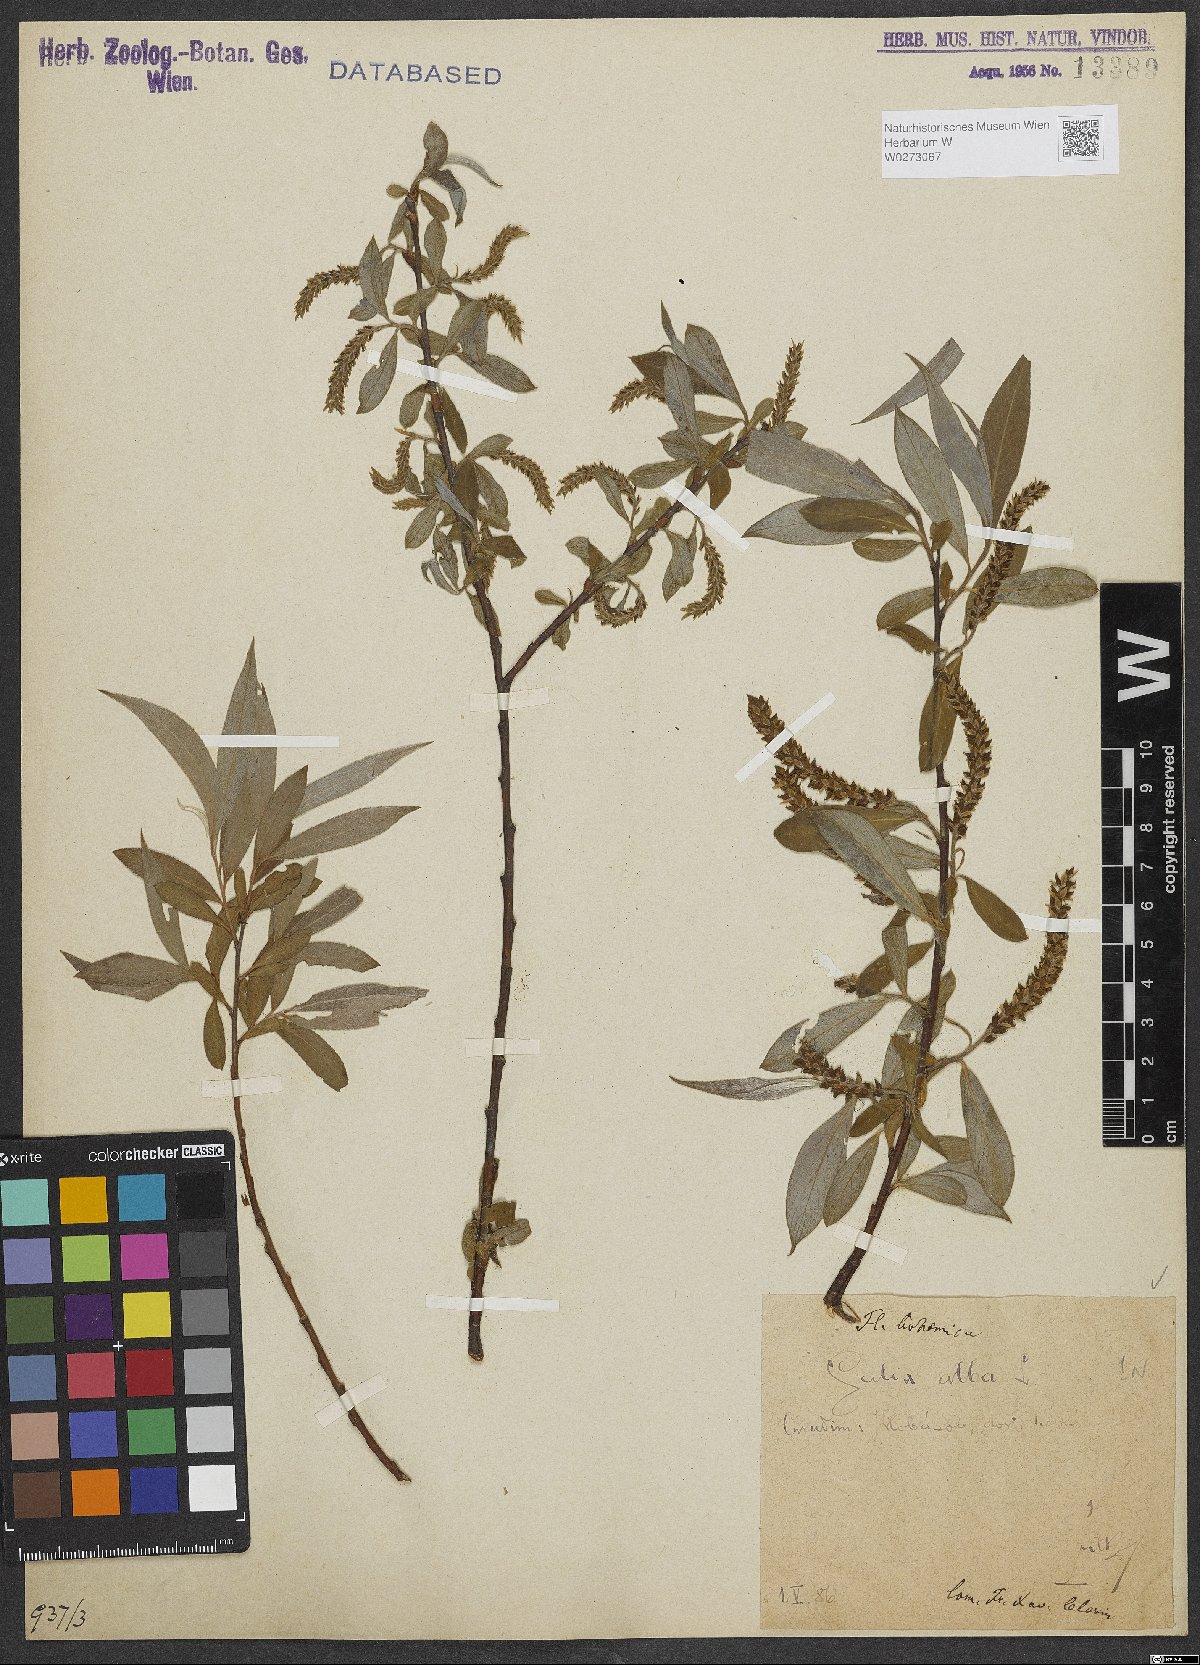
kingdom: Plantae
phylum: Tracheophyta
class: Magnoliopsida
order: Malpighiales
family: Salicaceae
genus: Salix
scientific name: Salix alba
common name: White willow
